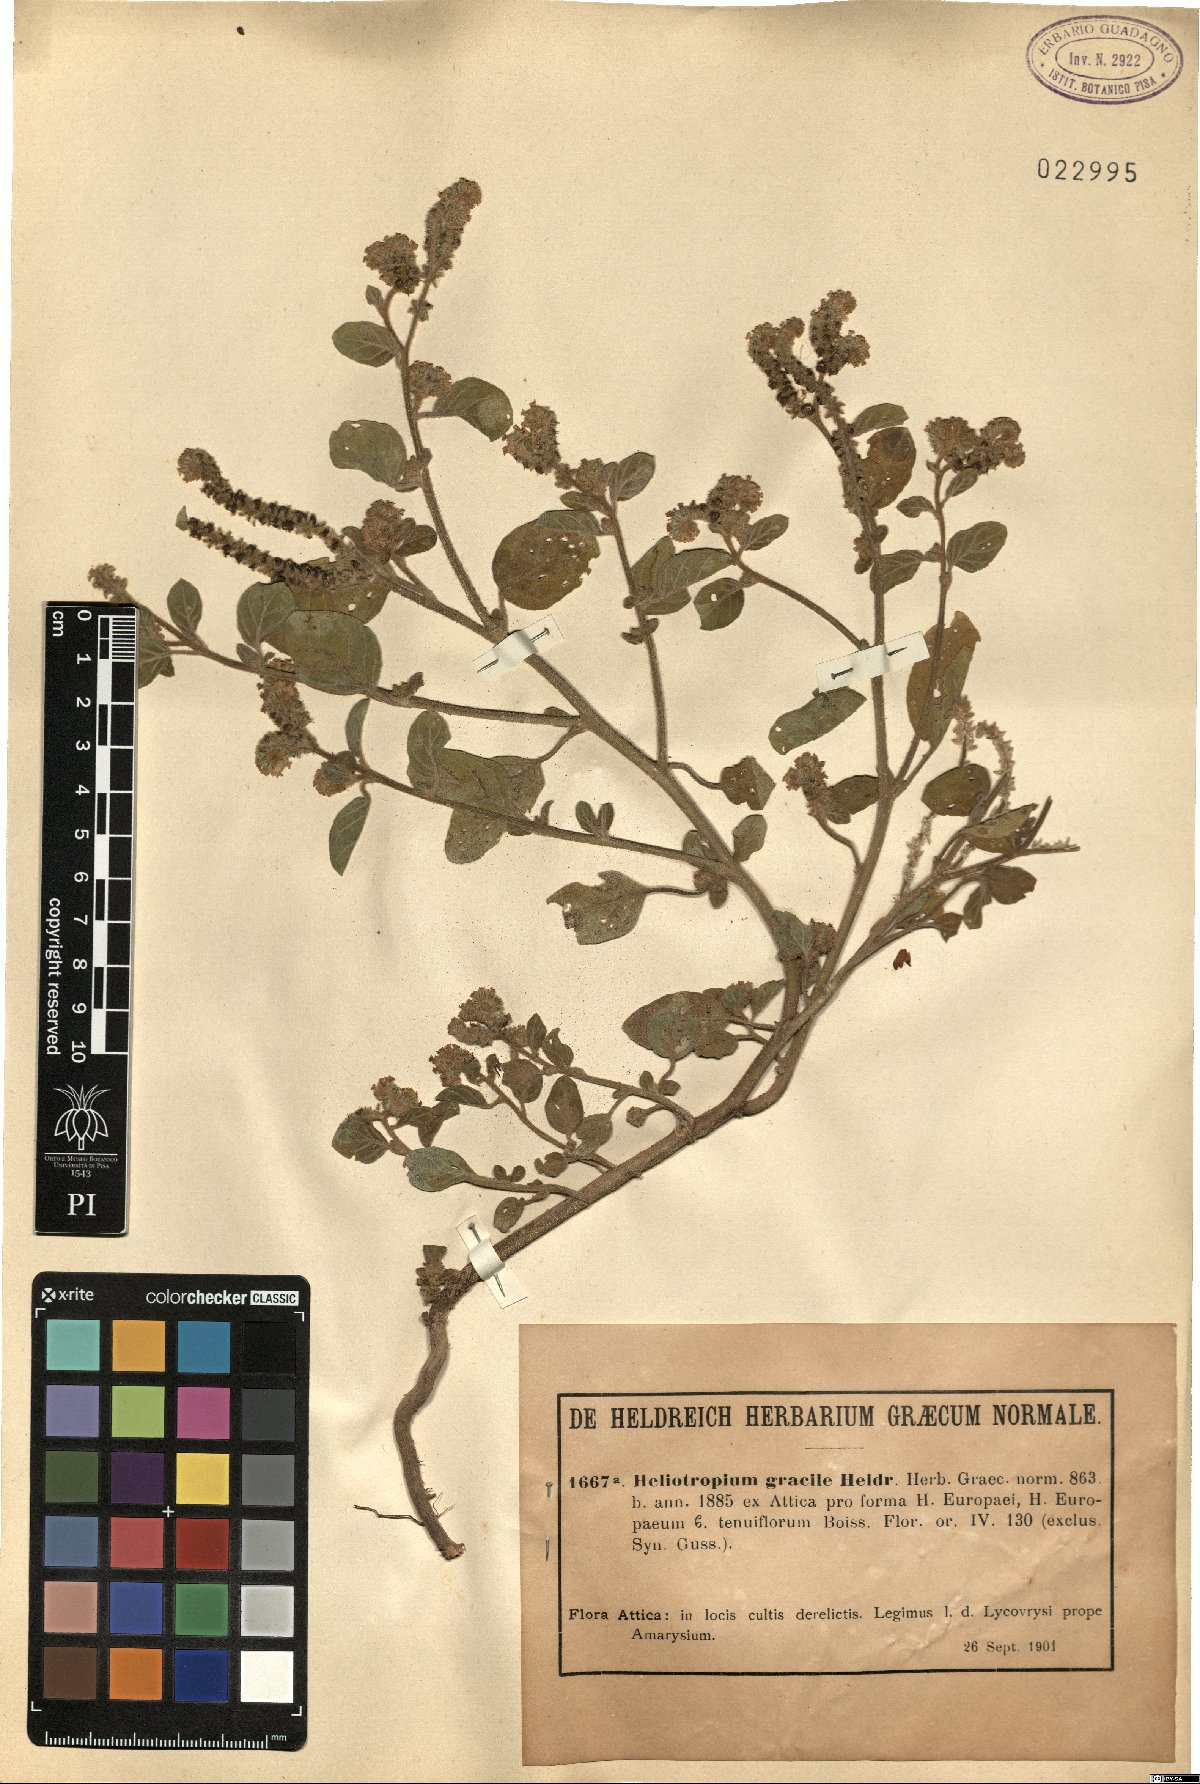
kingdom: Plantae
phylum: Tracheophyta
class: Magnoliopsida
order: Boraginales
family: Heliotropiaceae
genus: Euploca
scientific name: Euploca ovalifolia
